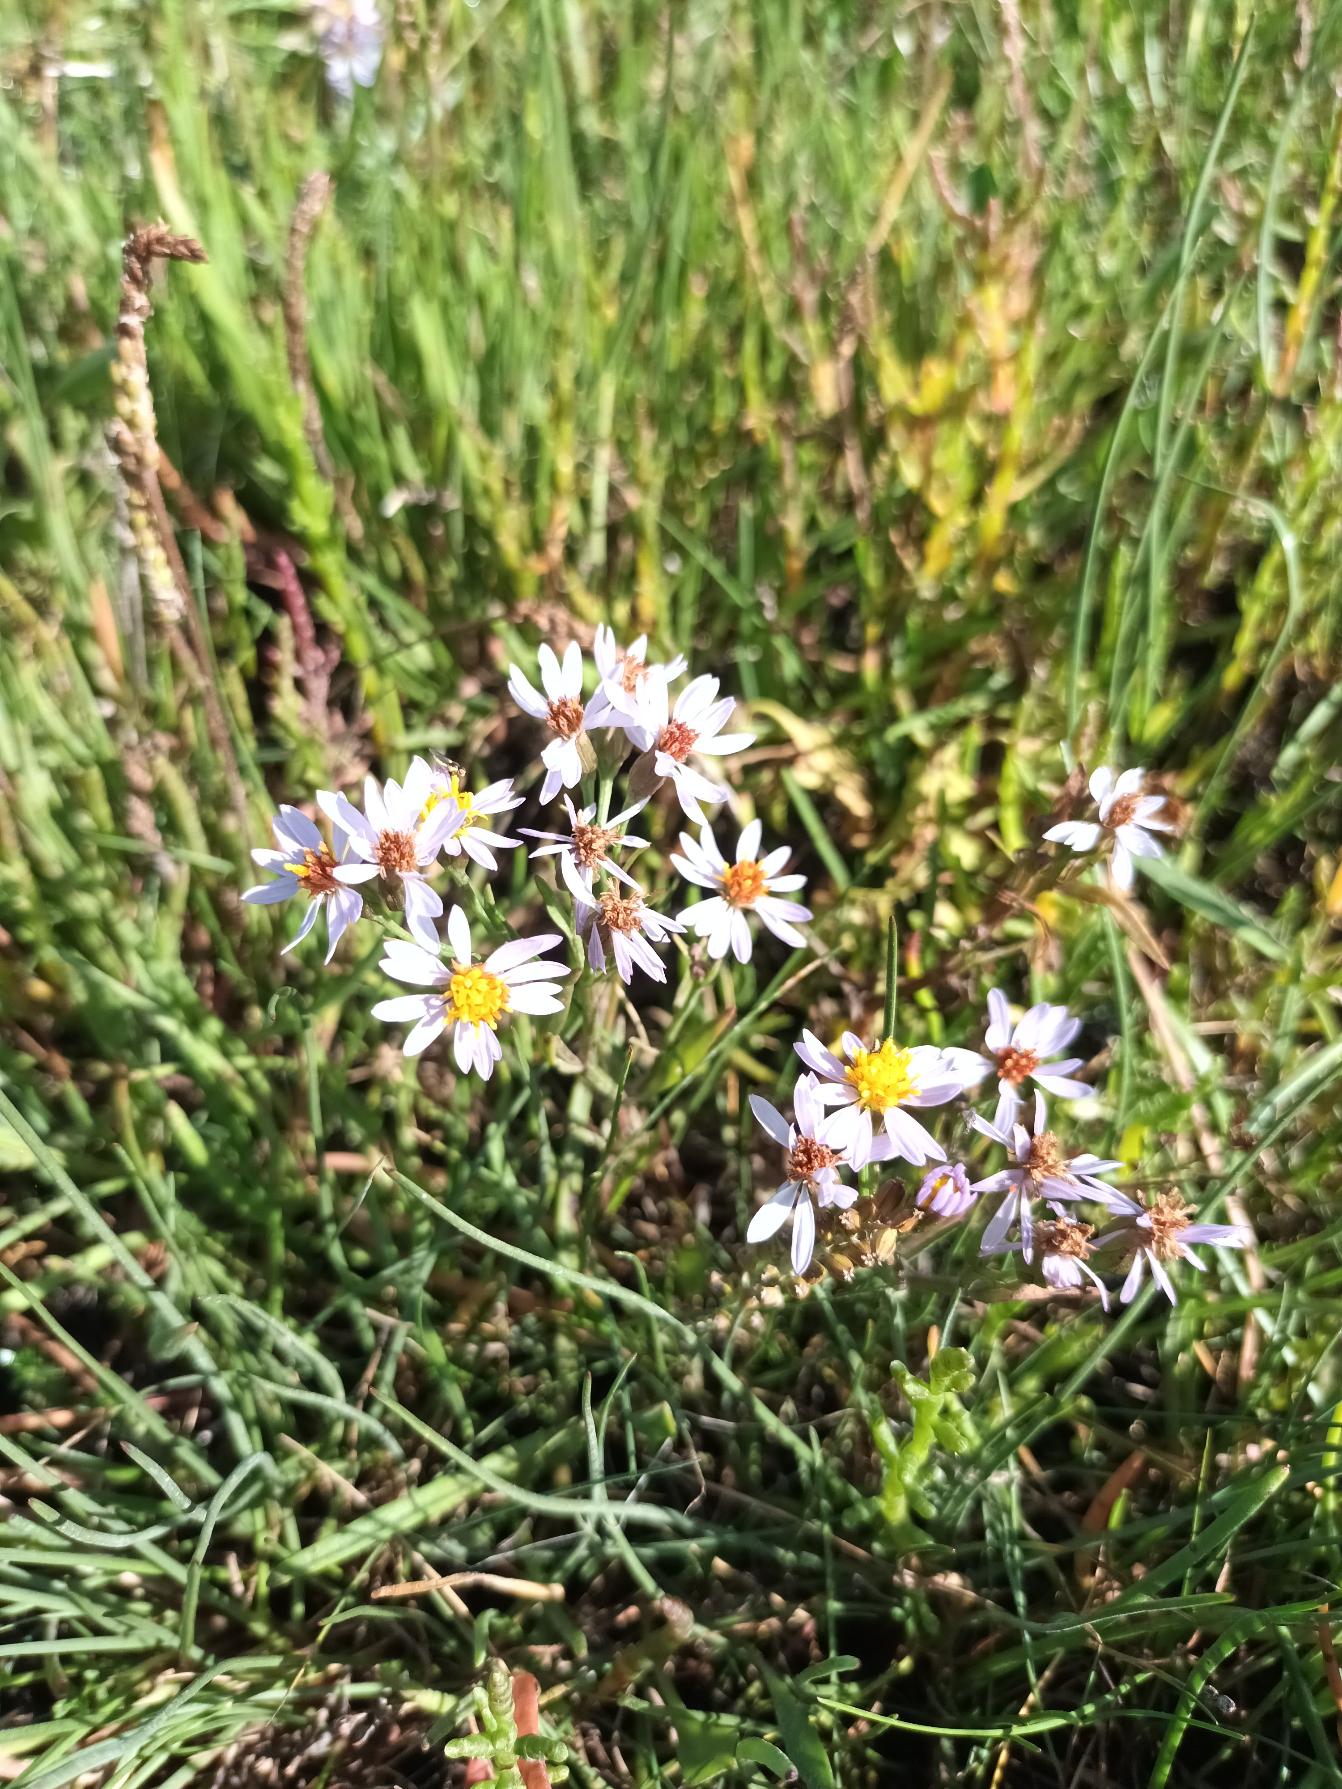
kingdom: Plantae
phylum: Tracheophyta
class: Magnoliopsida
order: Asterales
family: Asteraceae
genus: Tripolium
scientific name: Tripolium pannonicum
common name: Strandasters
